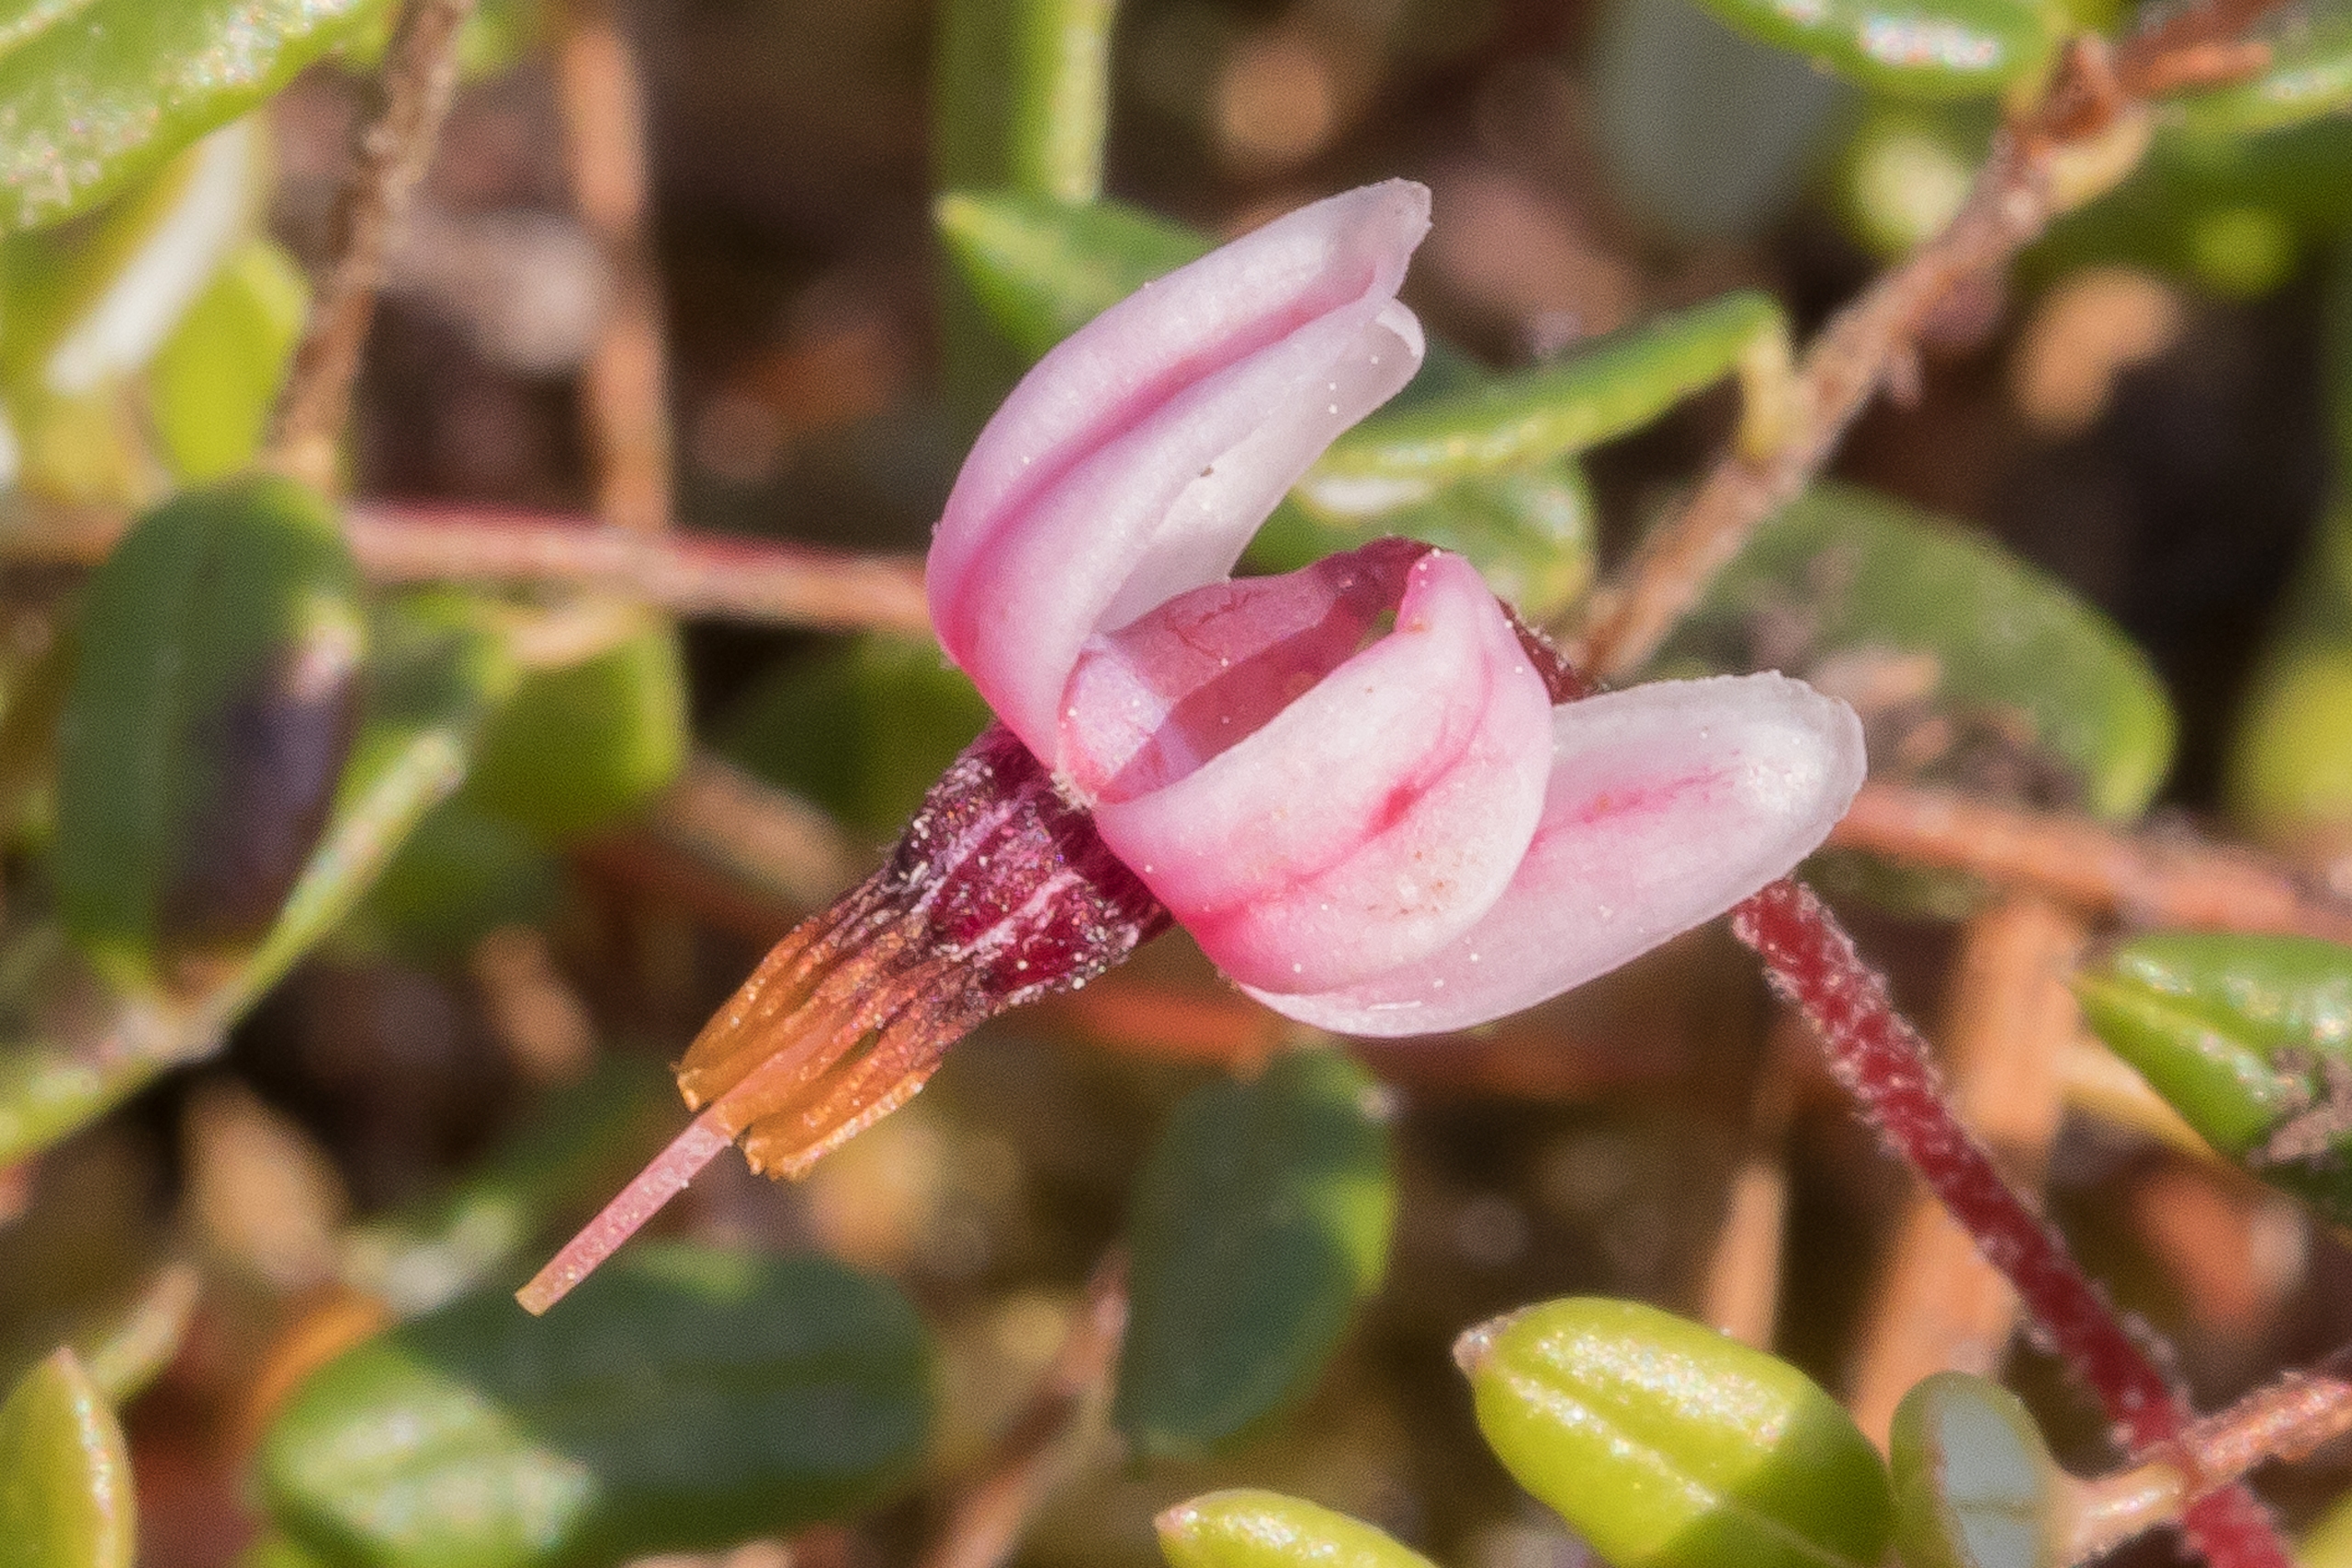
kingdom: Plantae
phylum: Tracheophyta
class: Magnoliopsida
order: Ericales
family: Ericaceae
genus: Vaccinium
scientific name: Vaccinium oxycoccos
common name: Tranebær
